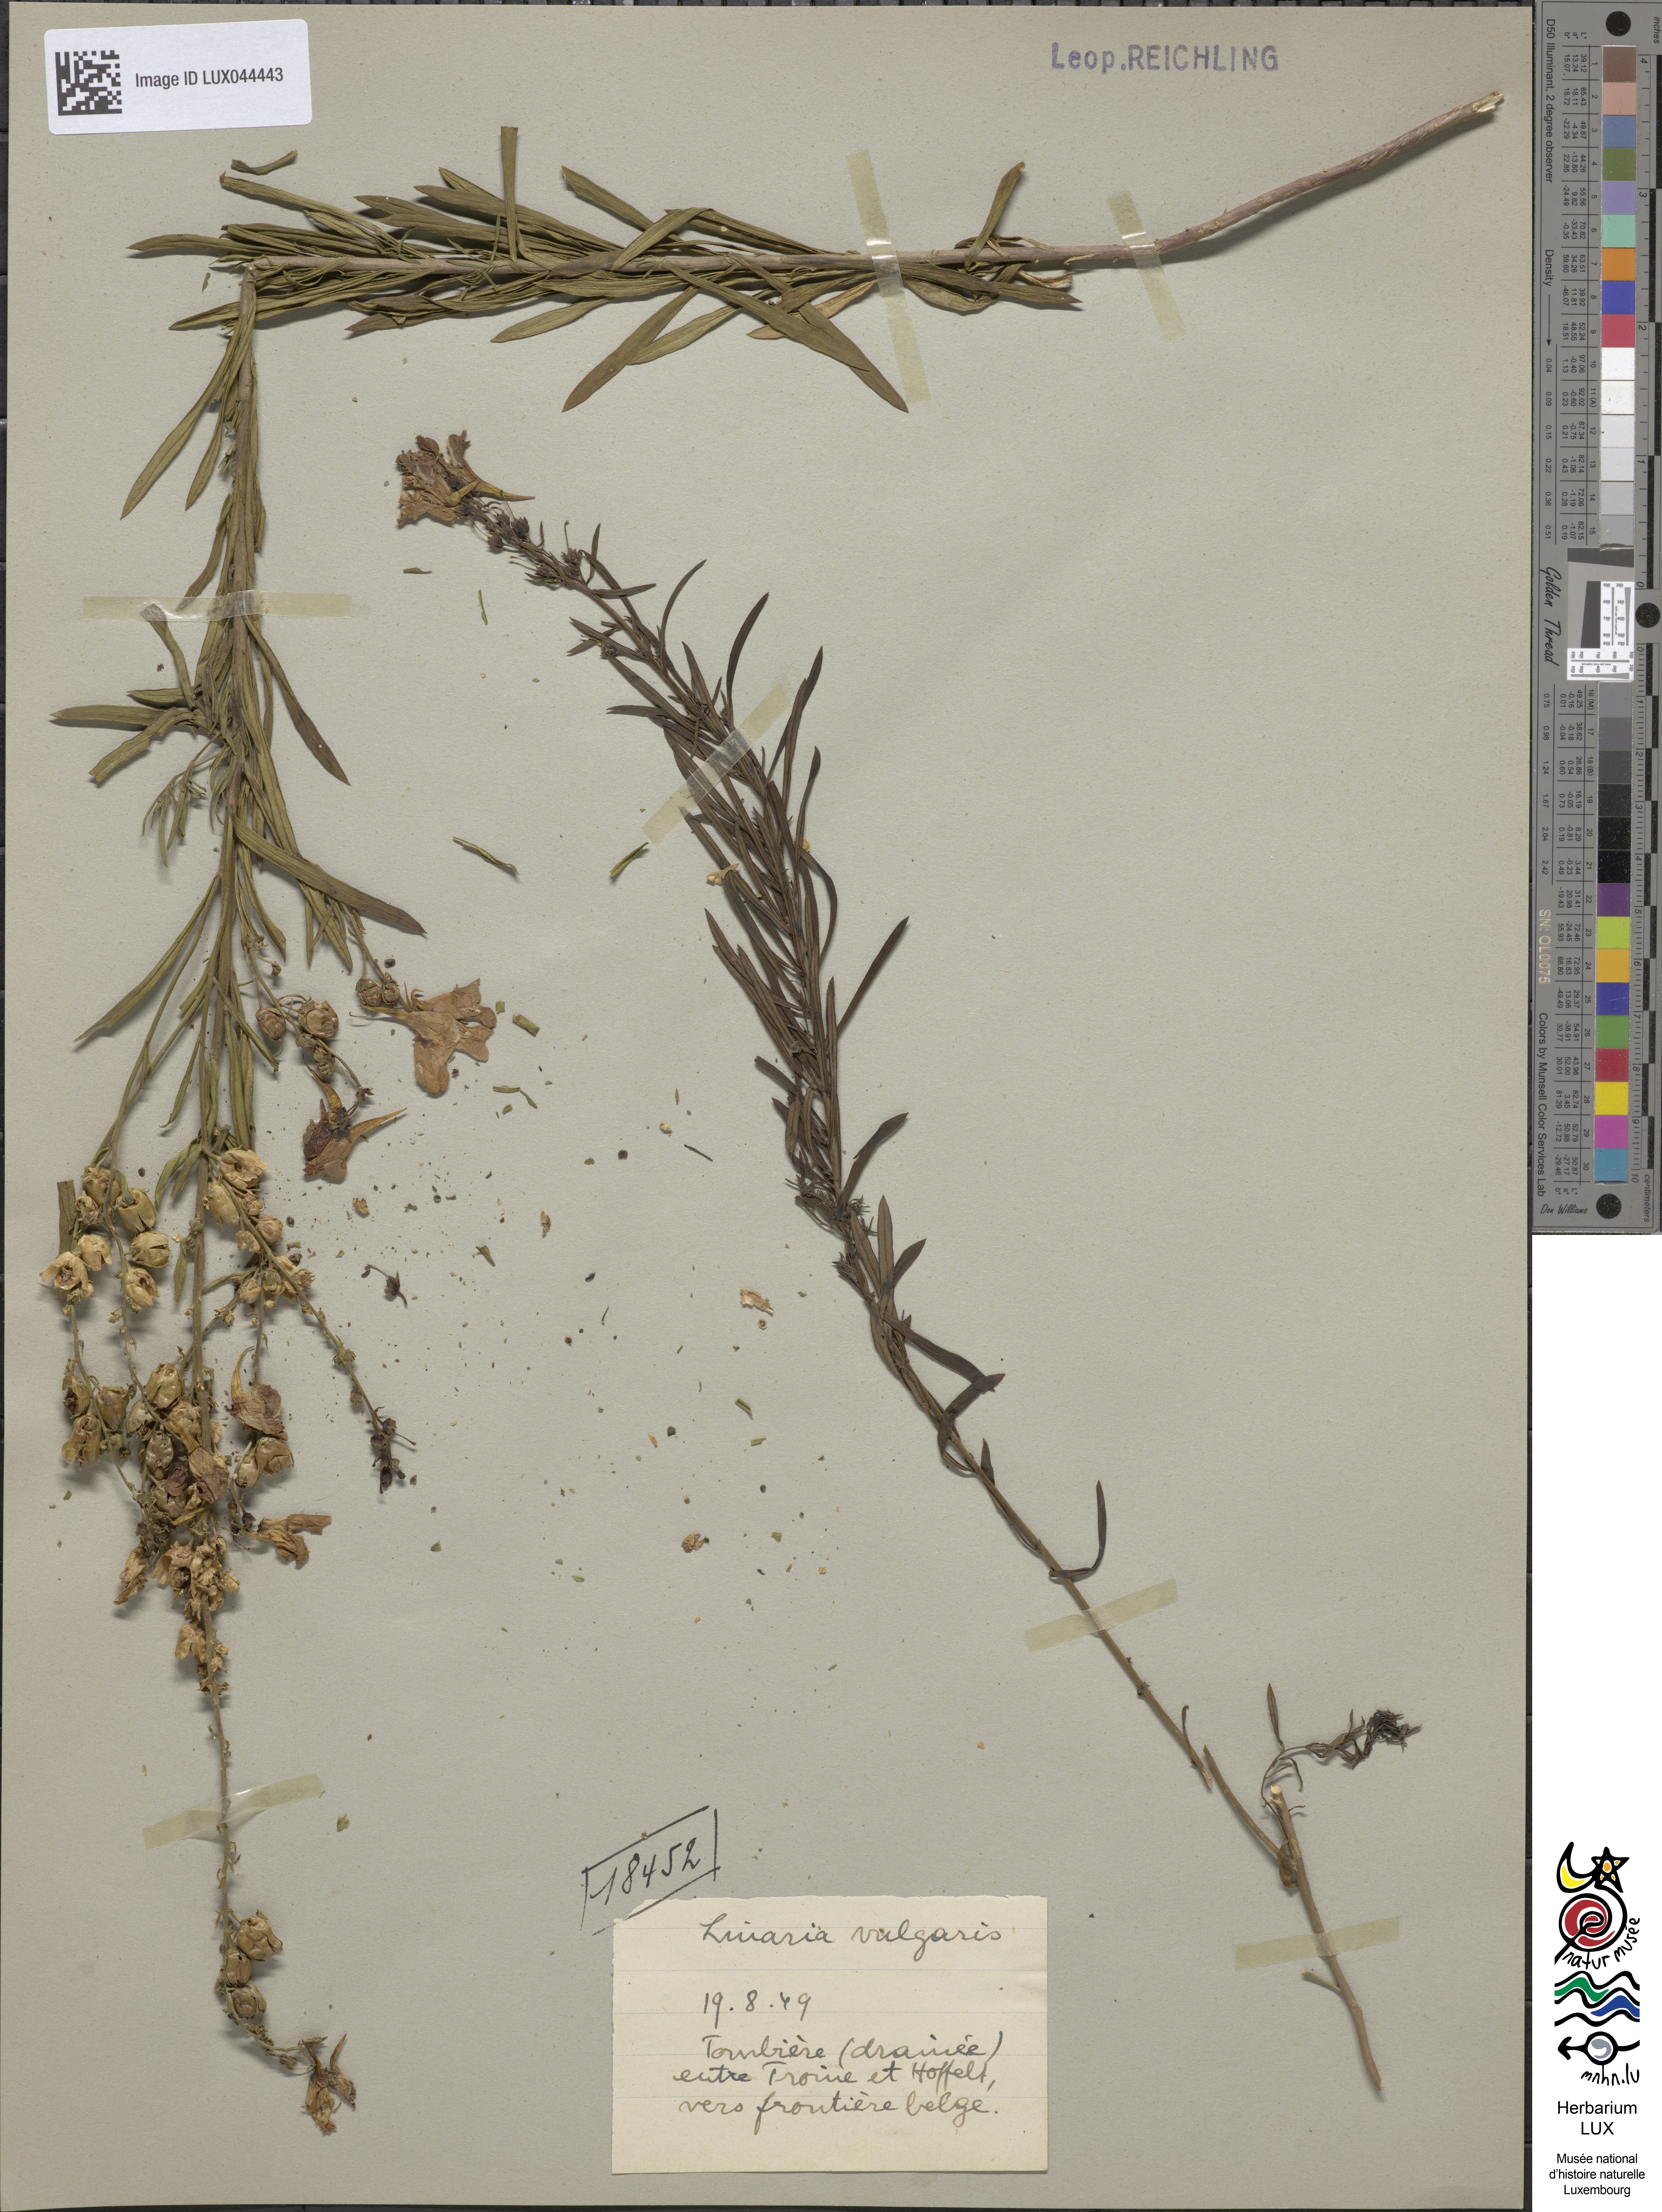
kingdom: Plantae
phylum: Tracheophyta
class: Magnoliopsida
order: Lamiales
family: Plantaginaceae
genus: Linaria
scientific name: Linaria vulgaris
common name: Butter and eggs
